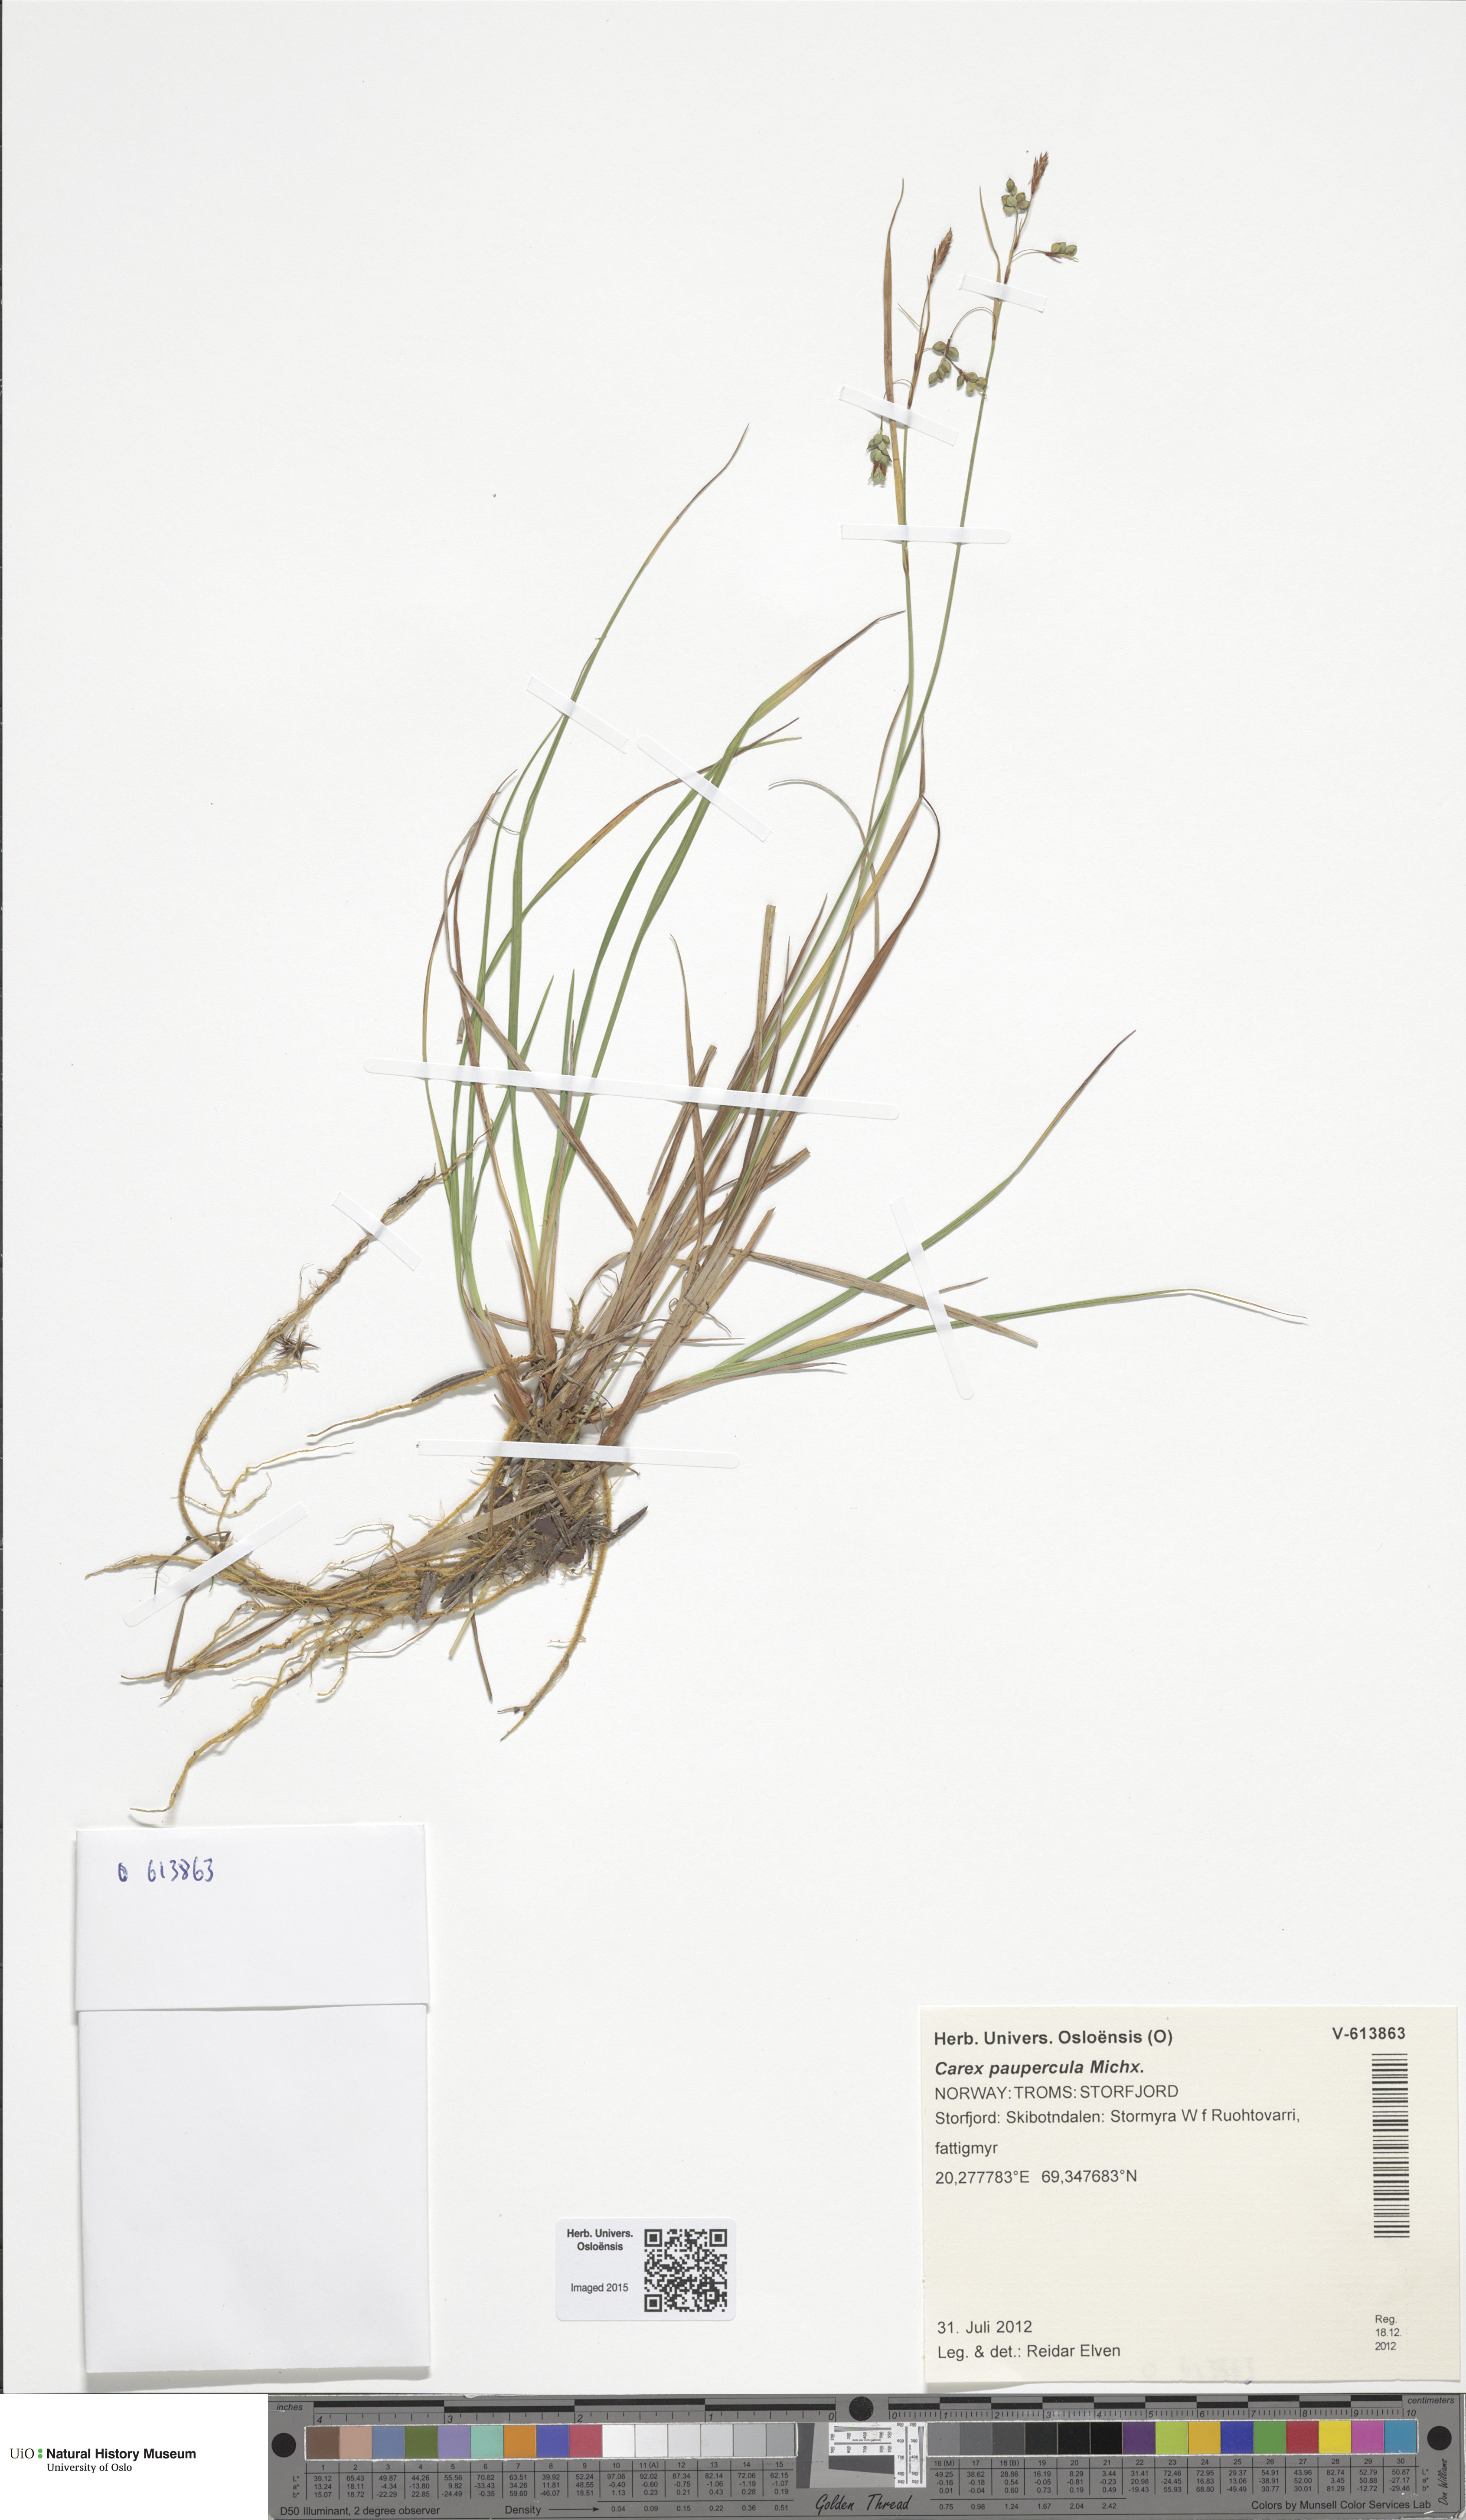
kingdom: Plantae
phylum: Tracheophyta
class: Liliopsida
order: Poales
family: Cyperaceae
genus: Carex
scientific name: Carex magellanica
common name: Bog sedge
